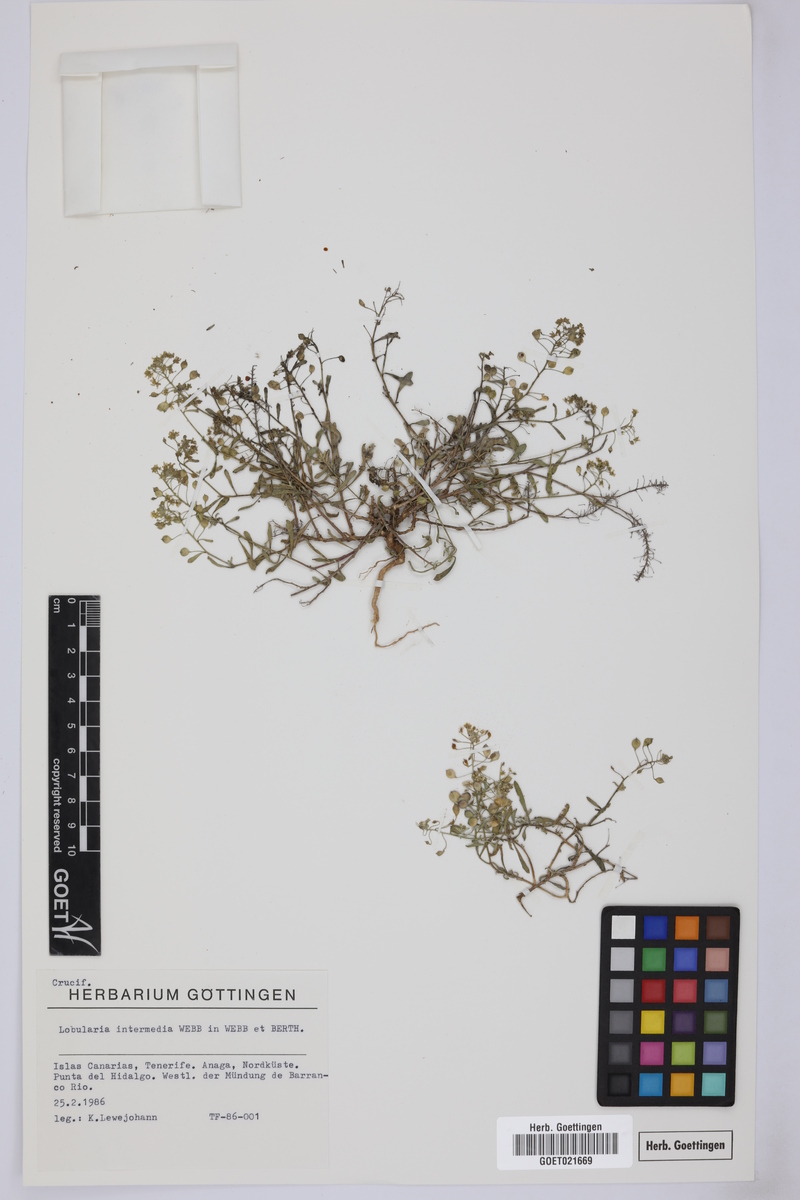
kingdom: Plantae
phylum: Tracheophyta
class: Magnoliopsida
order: Brassicales
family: Brassicaceae
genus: Lobularia
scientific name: Lobularia canariensis
